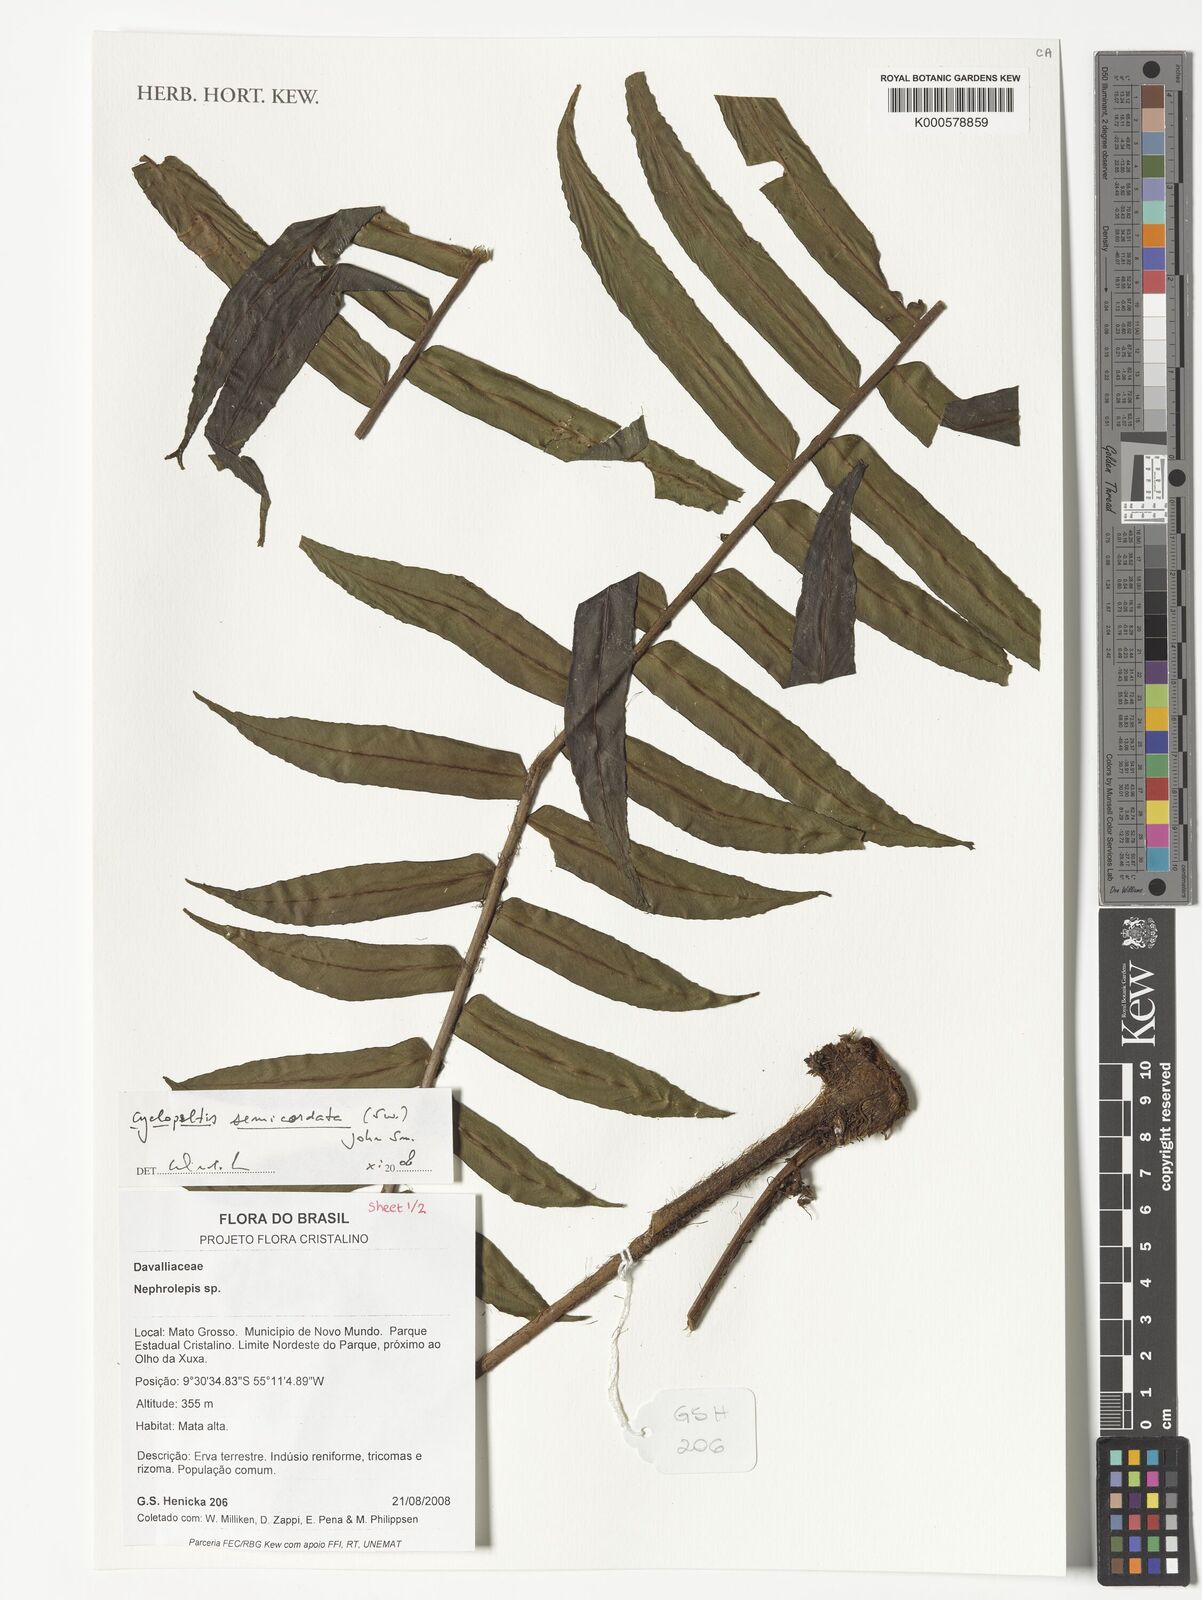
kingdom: Plantae
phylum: Tracheophyta
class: Polypodiopsida
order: Polypodiales
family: Lomariopsidaceae
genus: Cyclopeltis
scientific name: Cyclopeltis semicordata
